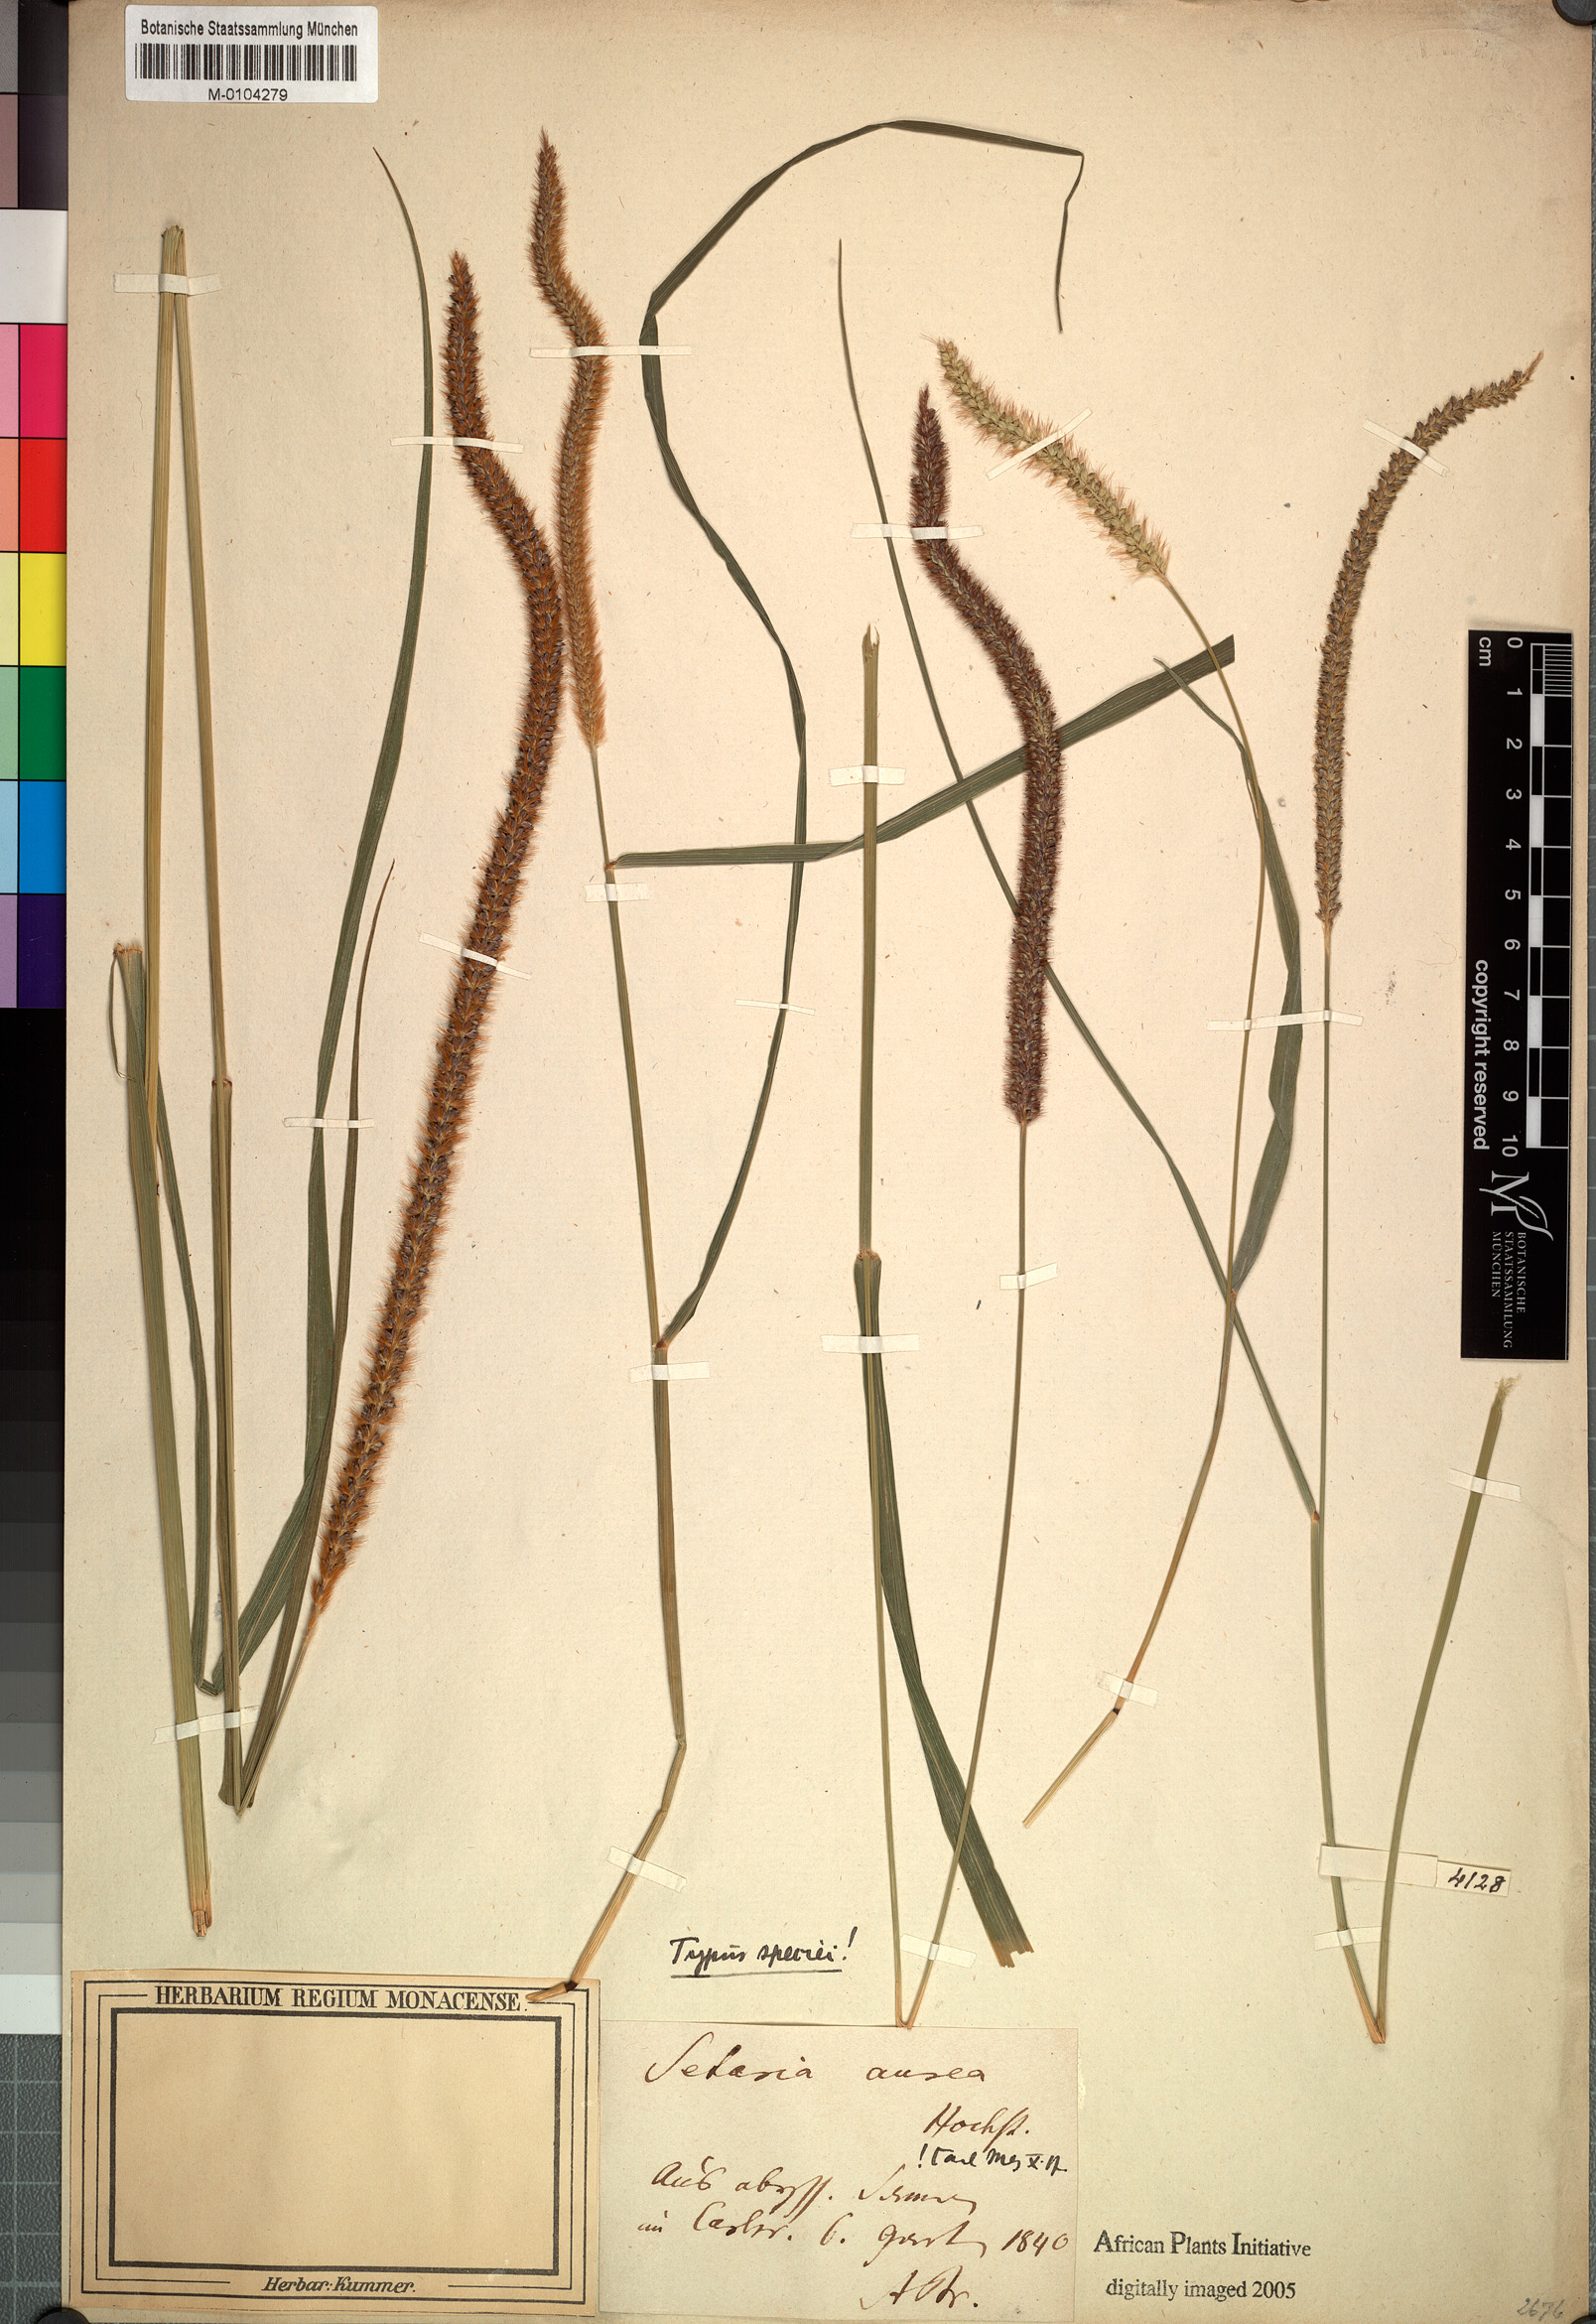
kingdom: Plantae
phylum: Tracheophyta
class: Liliopsida
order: Poales
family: Poaceae
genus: Setaria
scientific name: Setaria sphacelata
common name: African bristlegrass
